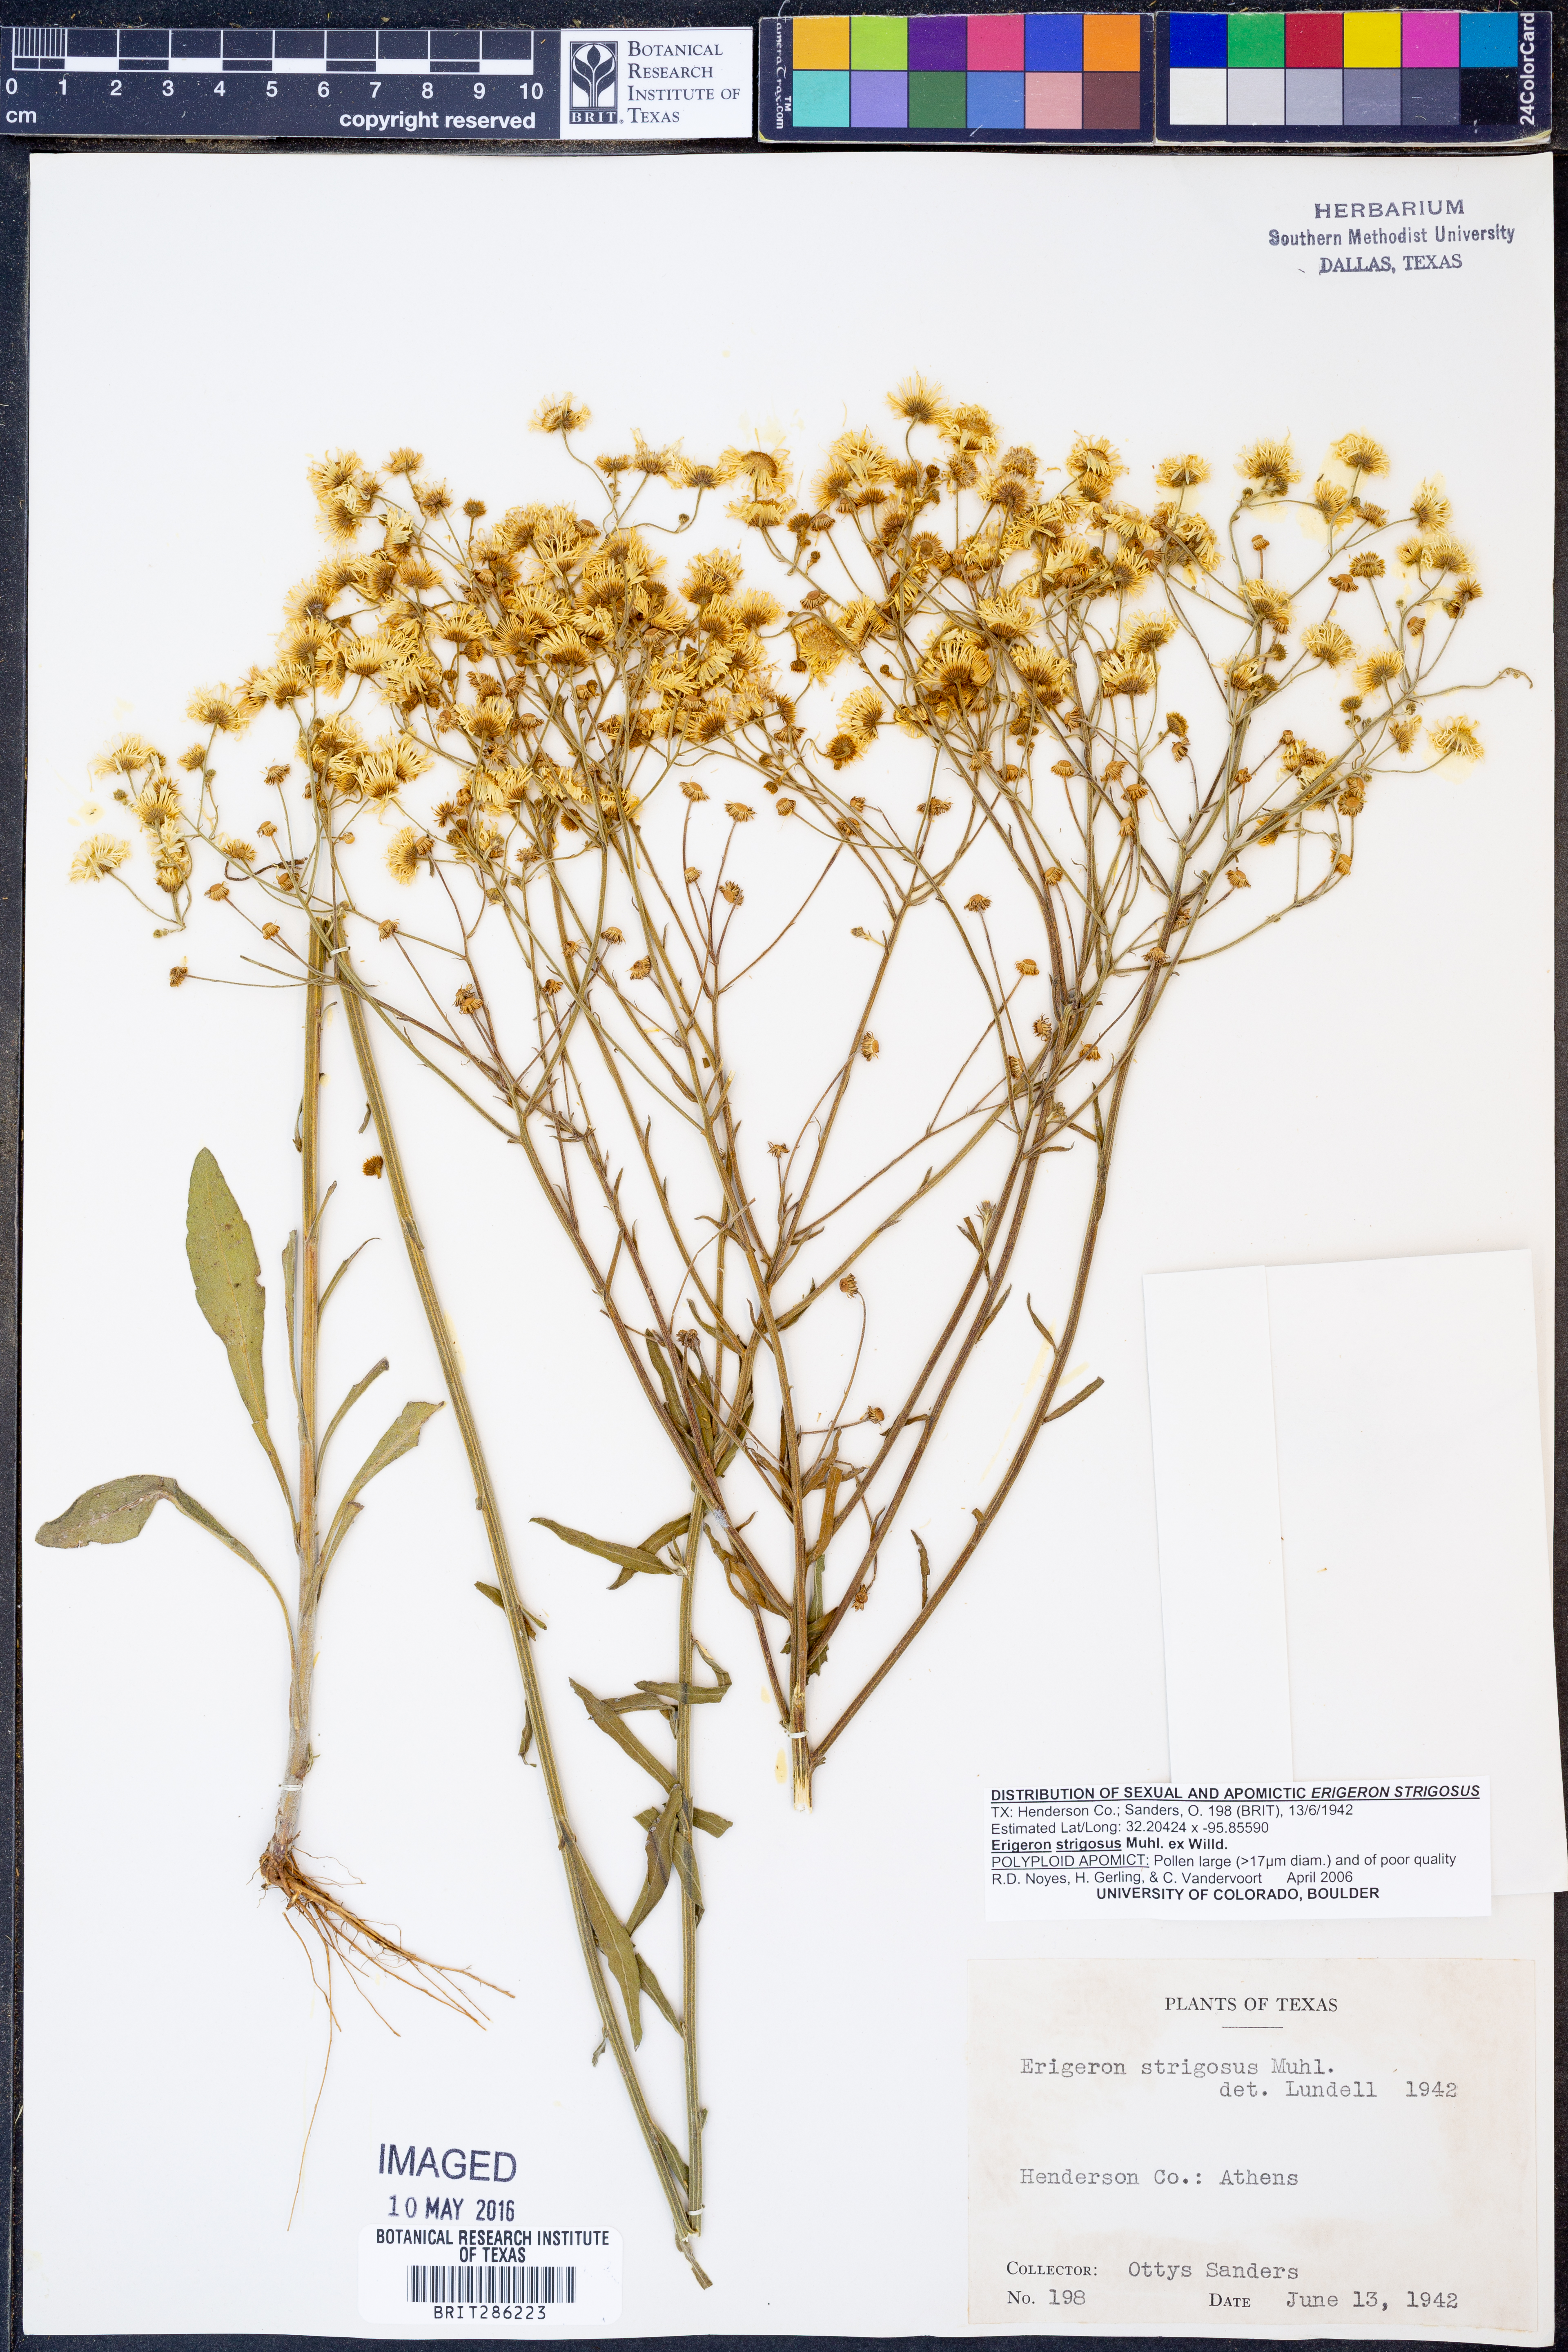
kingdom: Plantae
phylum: Tracheophyta
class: Magnoliopsida
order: Asterales
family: Asteraceae
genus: Erigeron
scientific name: Erigeron strigosus
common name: Common eastern fleabane
